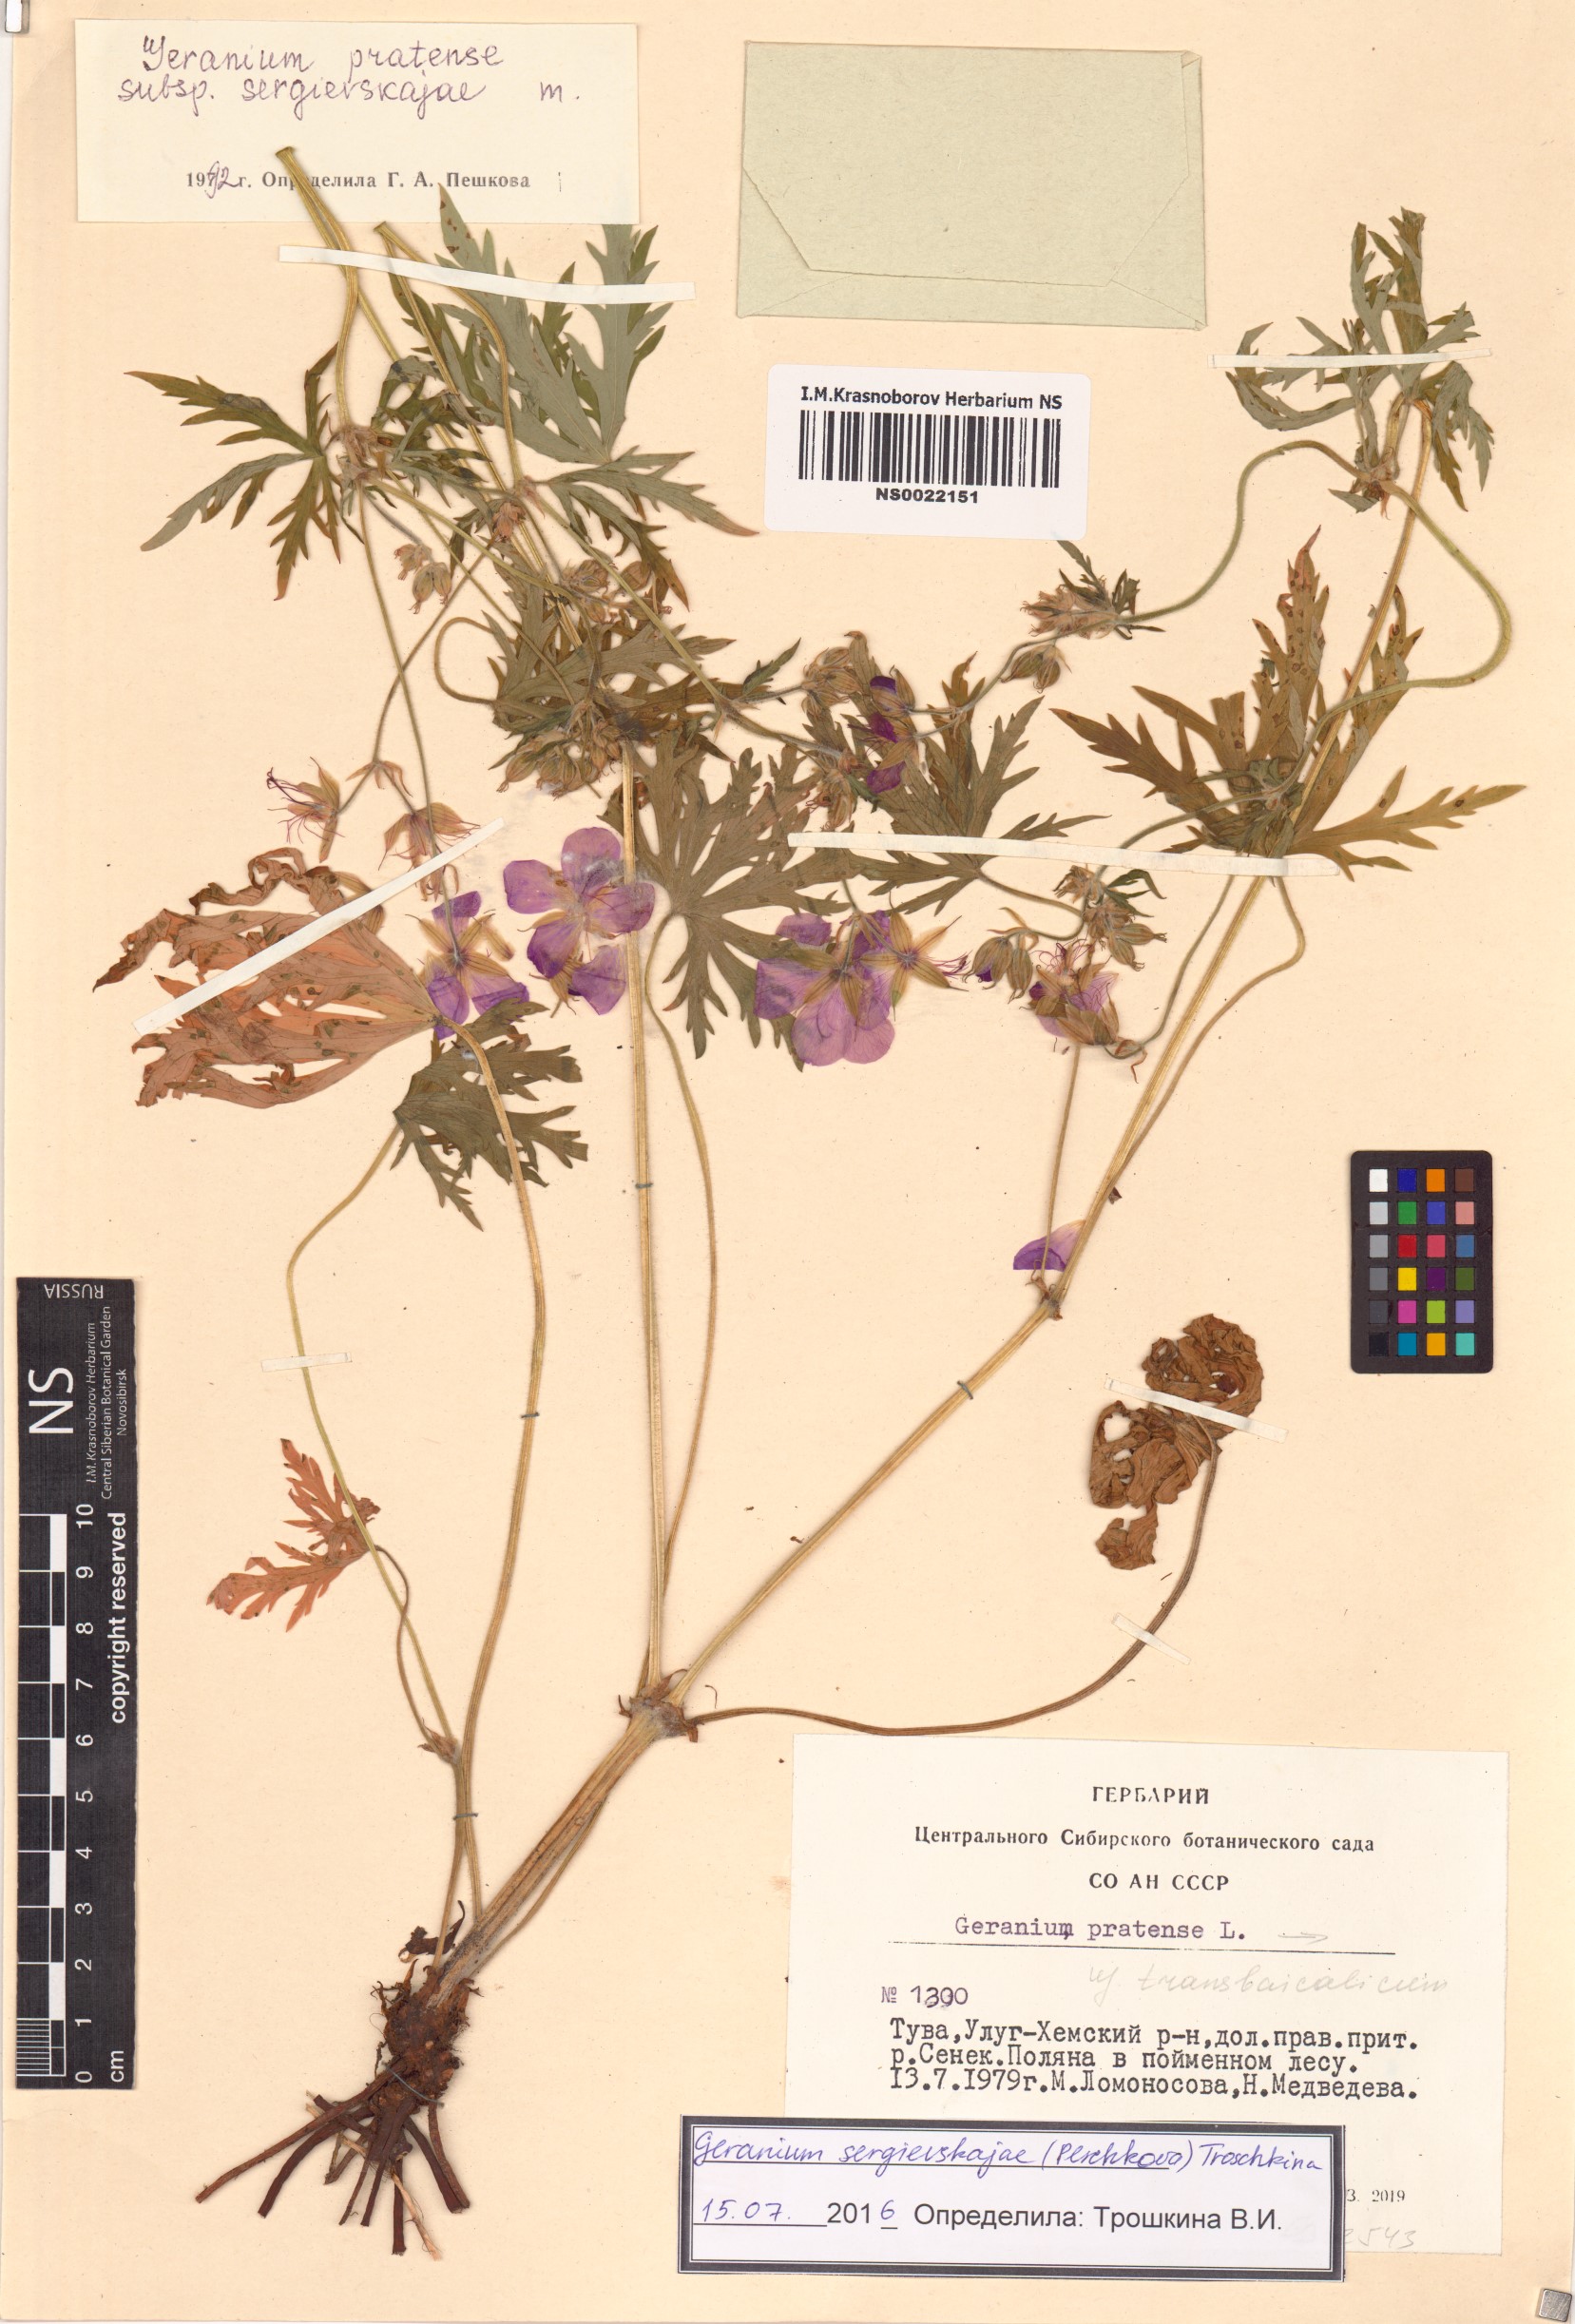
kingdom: Plantae
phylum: Tracheophyta
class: Magnoliopsida
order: Geraniales
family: Geraniaceae
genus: Geranium
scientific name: Geranium pratense
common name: Meadow crane's-bill
